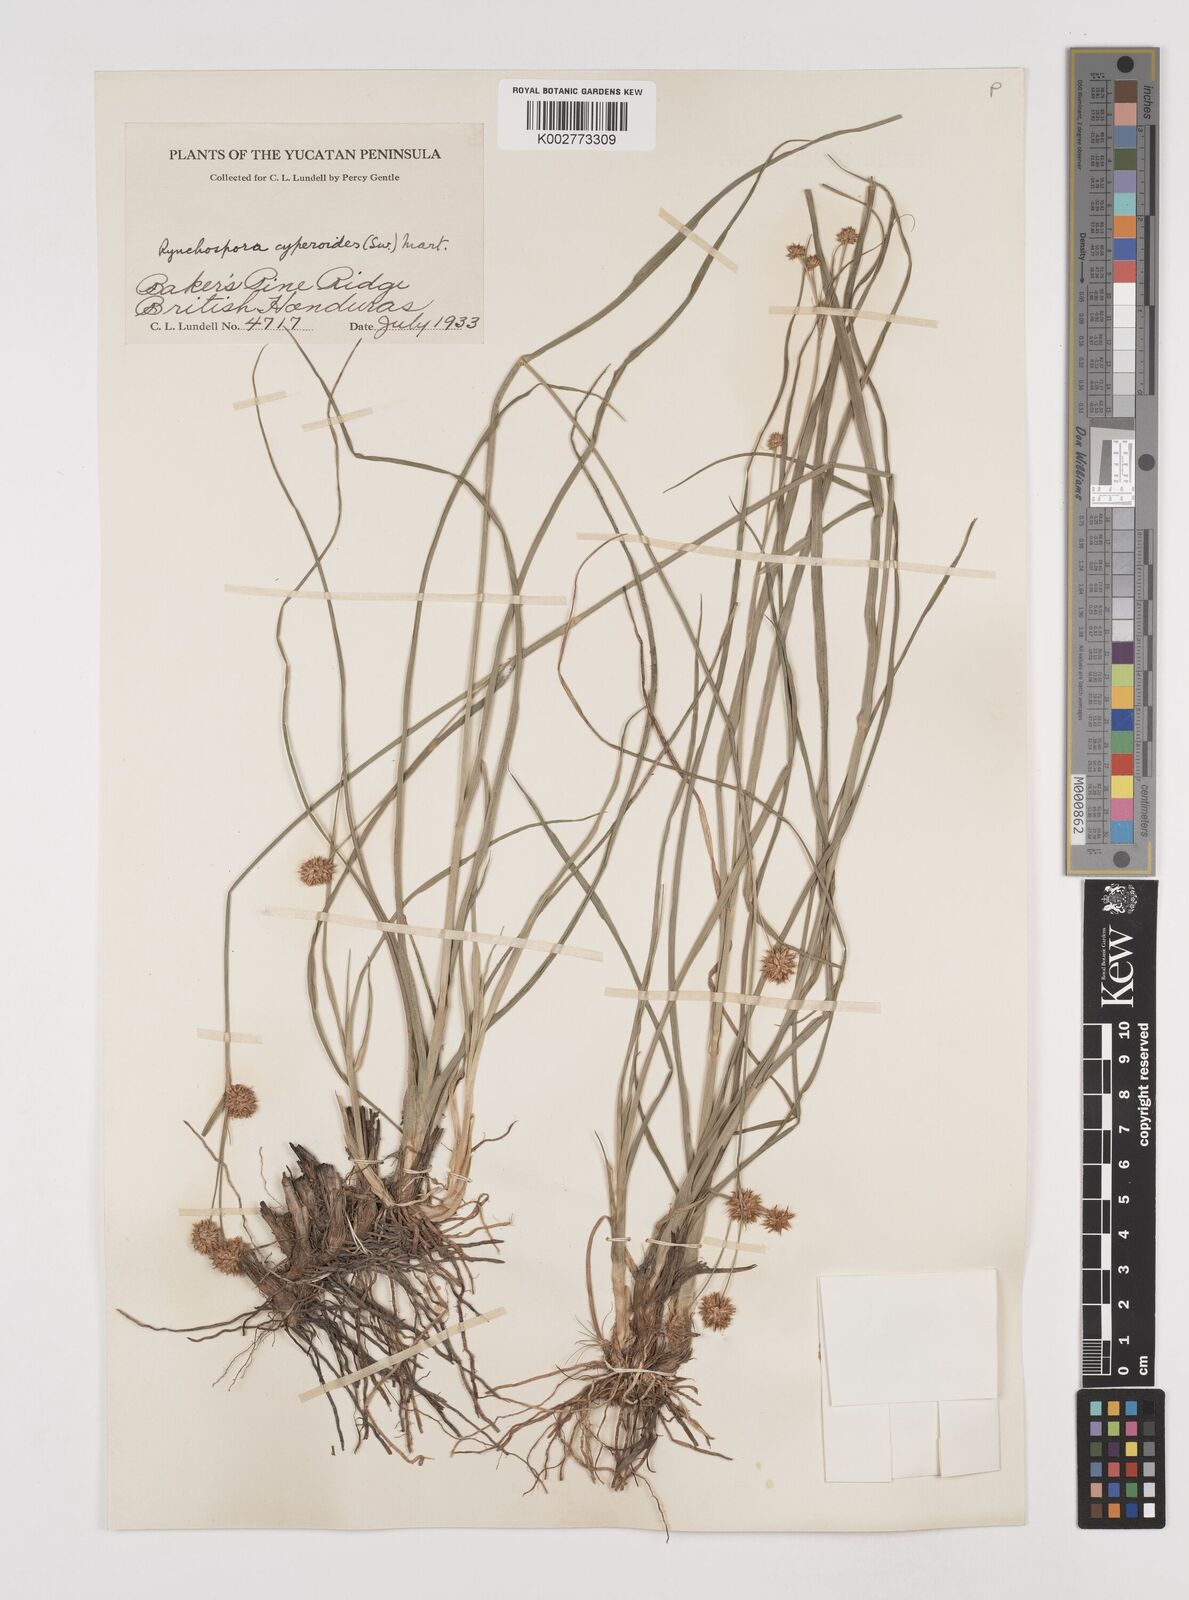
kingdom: Plantae
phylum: Tracheophyta
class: Liliopsida
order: Poales
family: Cyperaceae
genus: Rhynchospora
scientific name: Rhynchospora holoschoenoides
